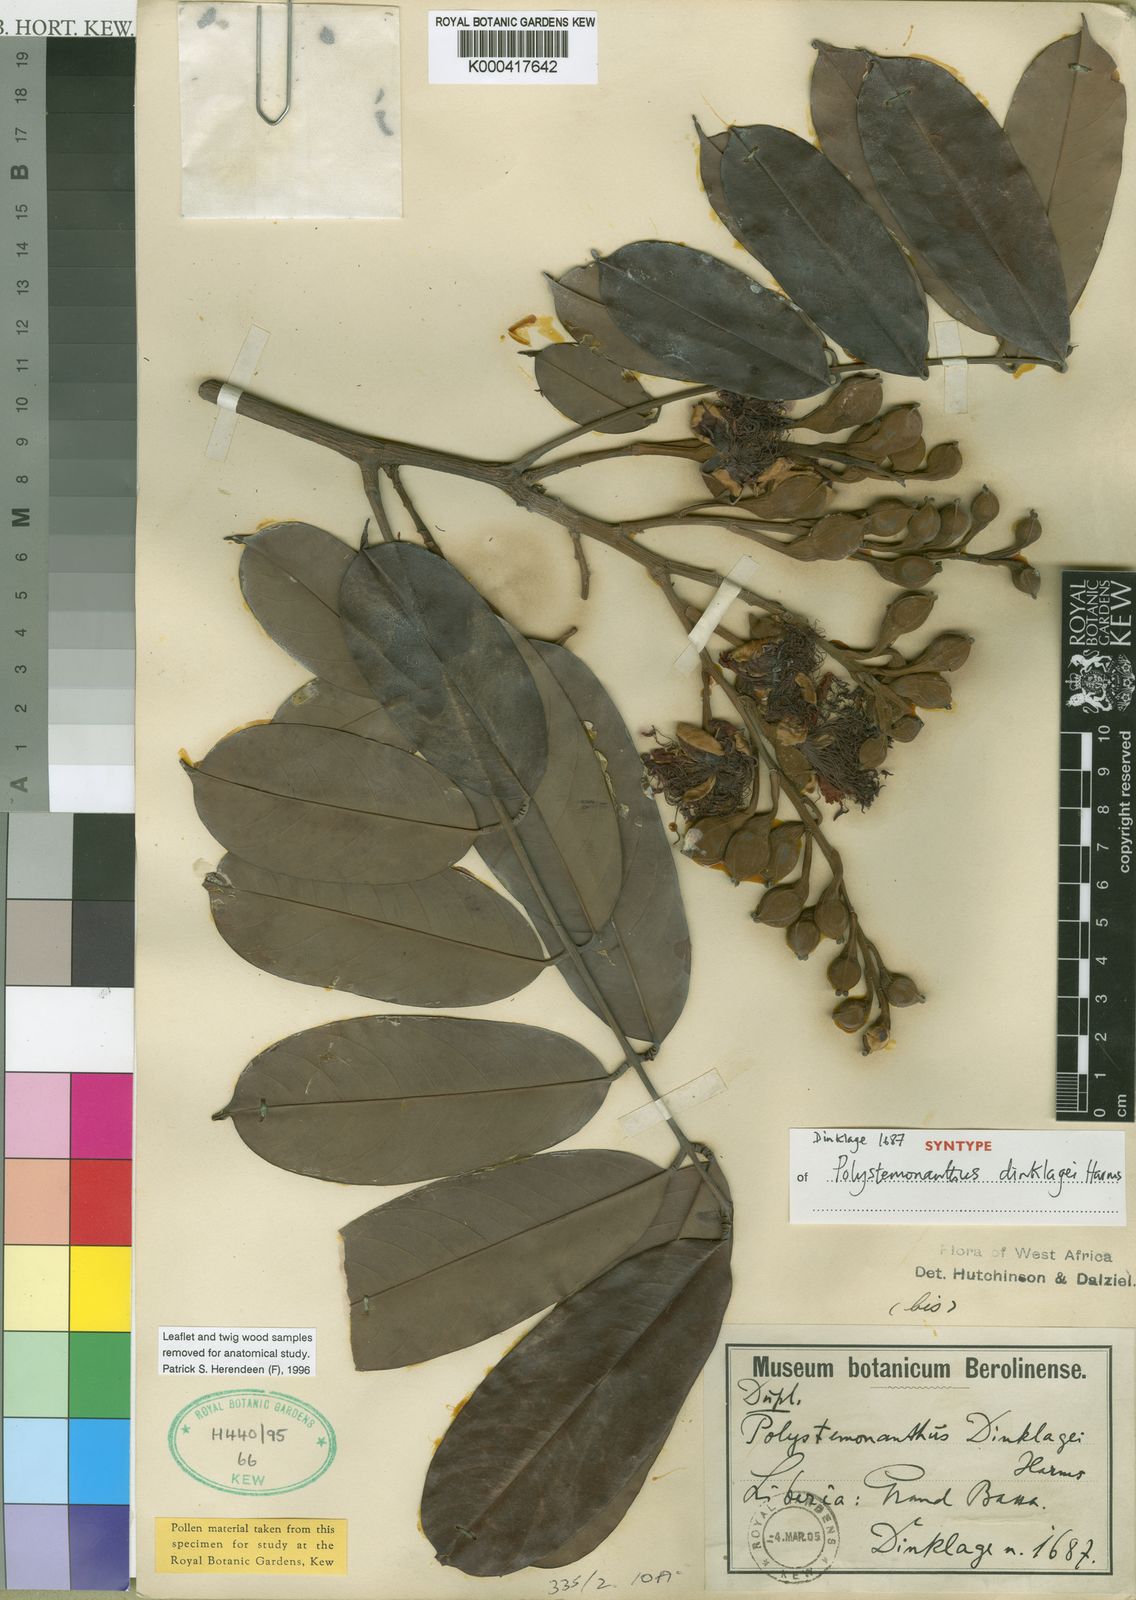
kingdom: Plantae
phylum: Tracheophyta
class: Magnoliopsida
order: Fabales
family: Fabaceae
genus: Polystemonanthus
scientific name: Polystemonanthus dinklagei
